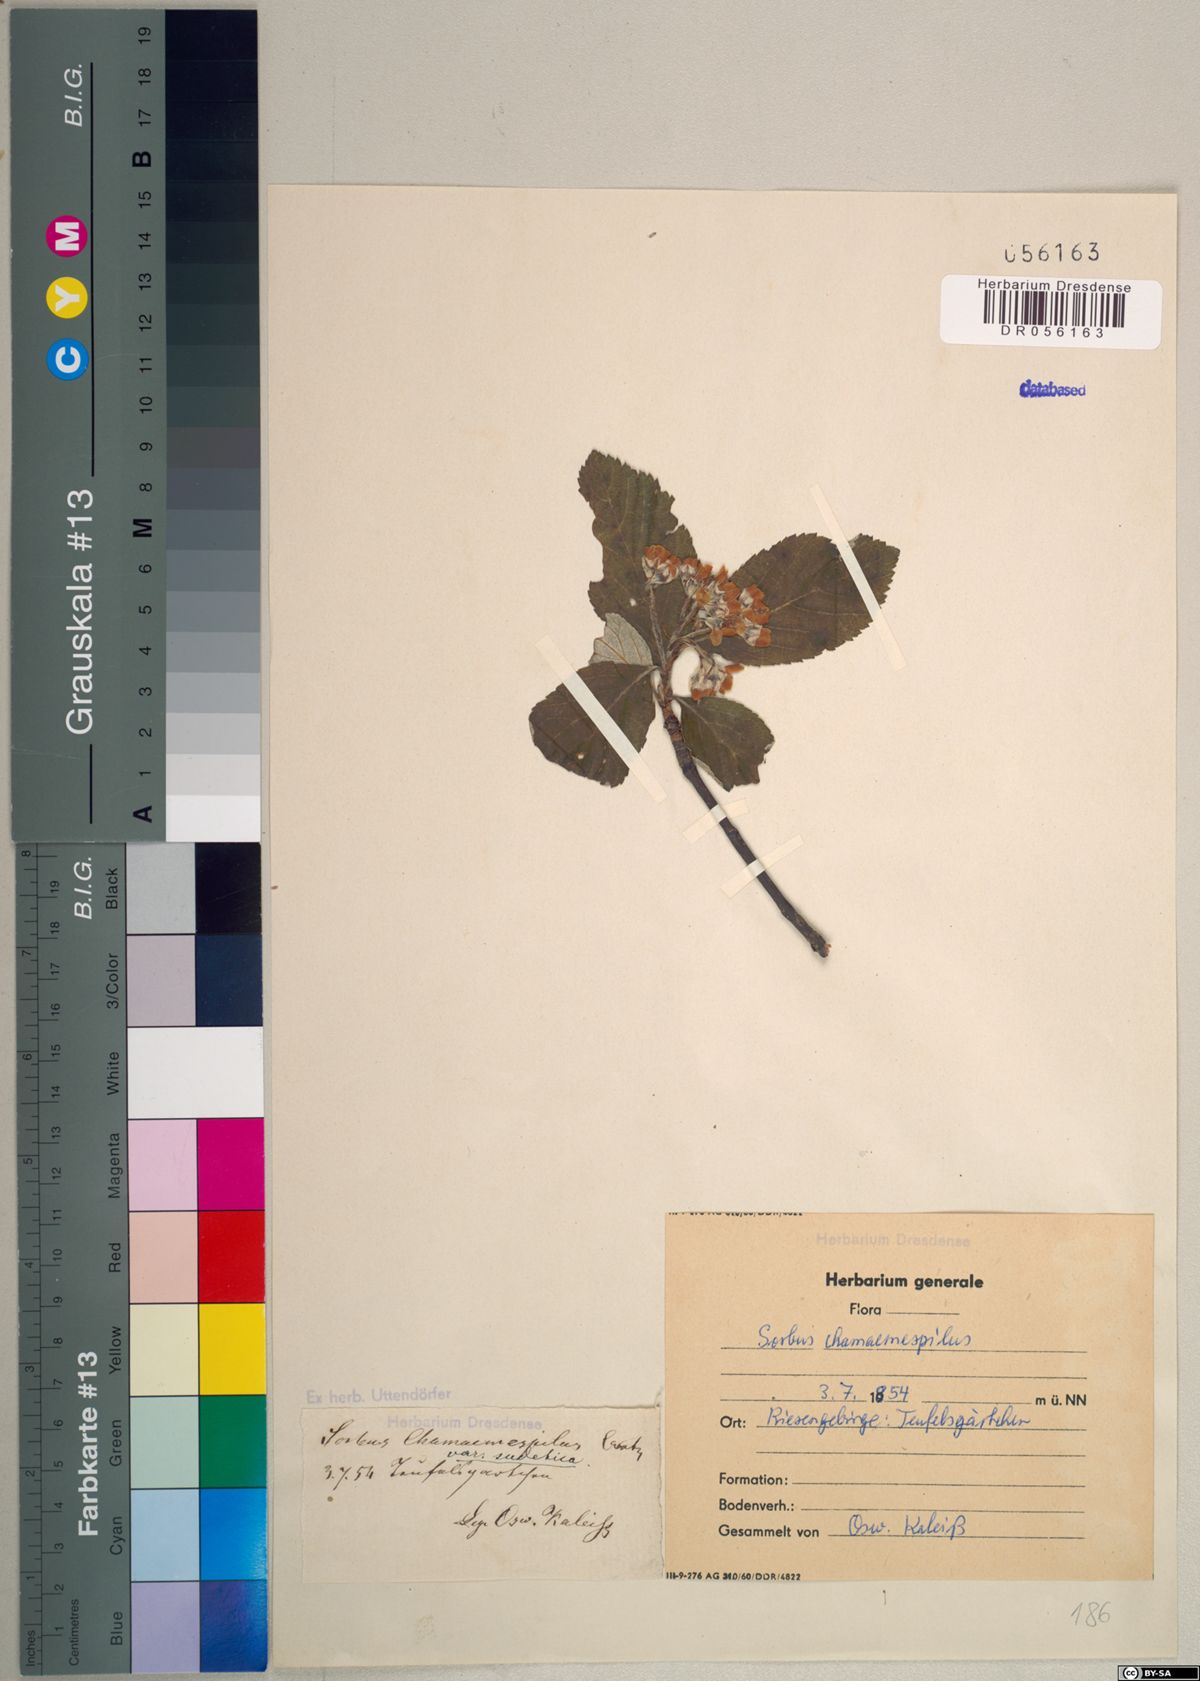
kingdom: Plantae
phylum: Tracheophyta
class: Magnoliopsida
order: Rosales
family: Rosaceae
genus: Chamaemespilus
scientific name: Chamaemespilus alpina
